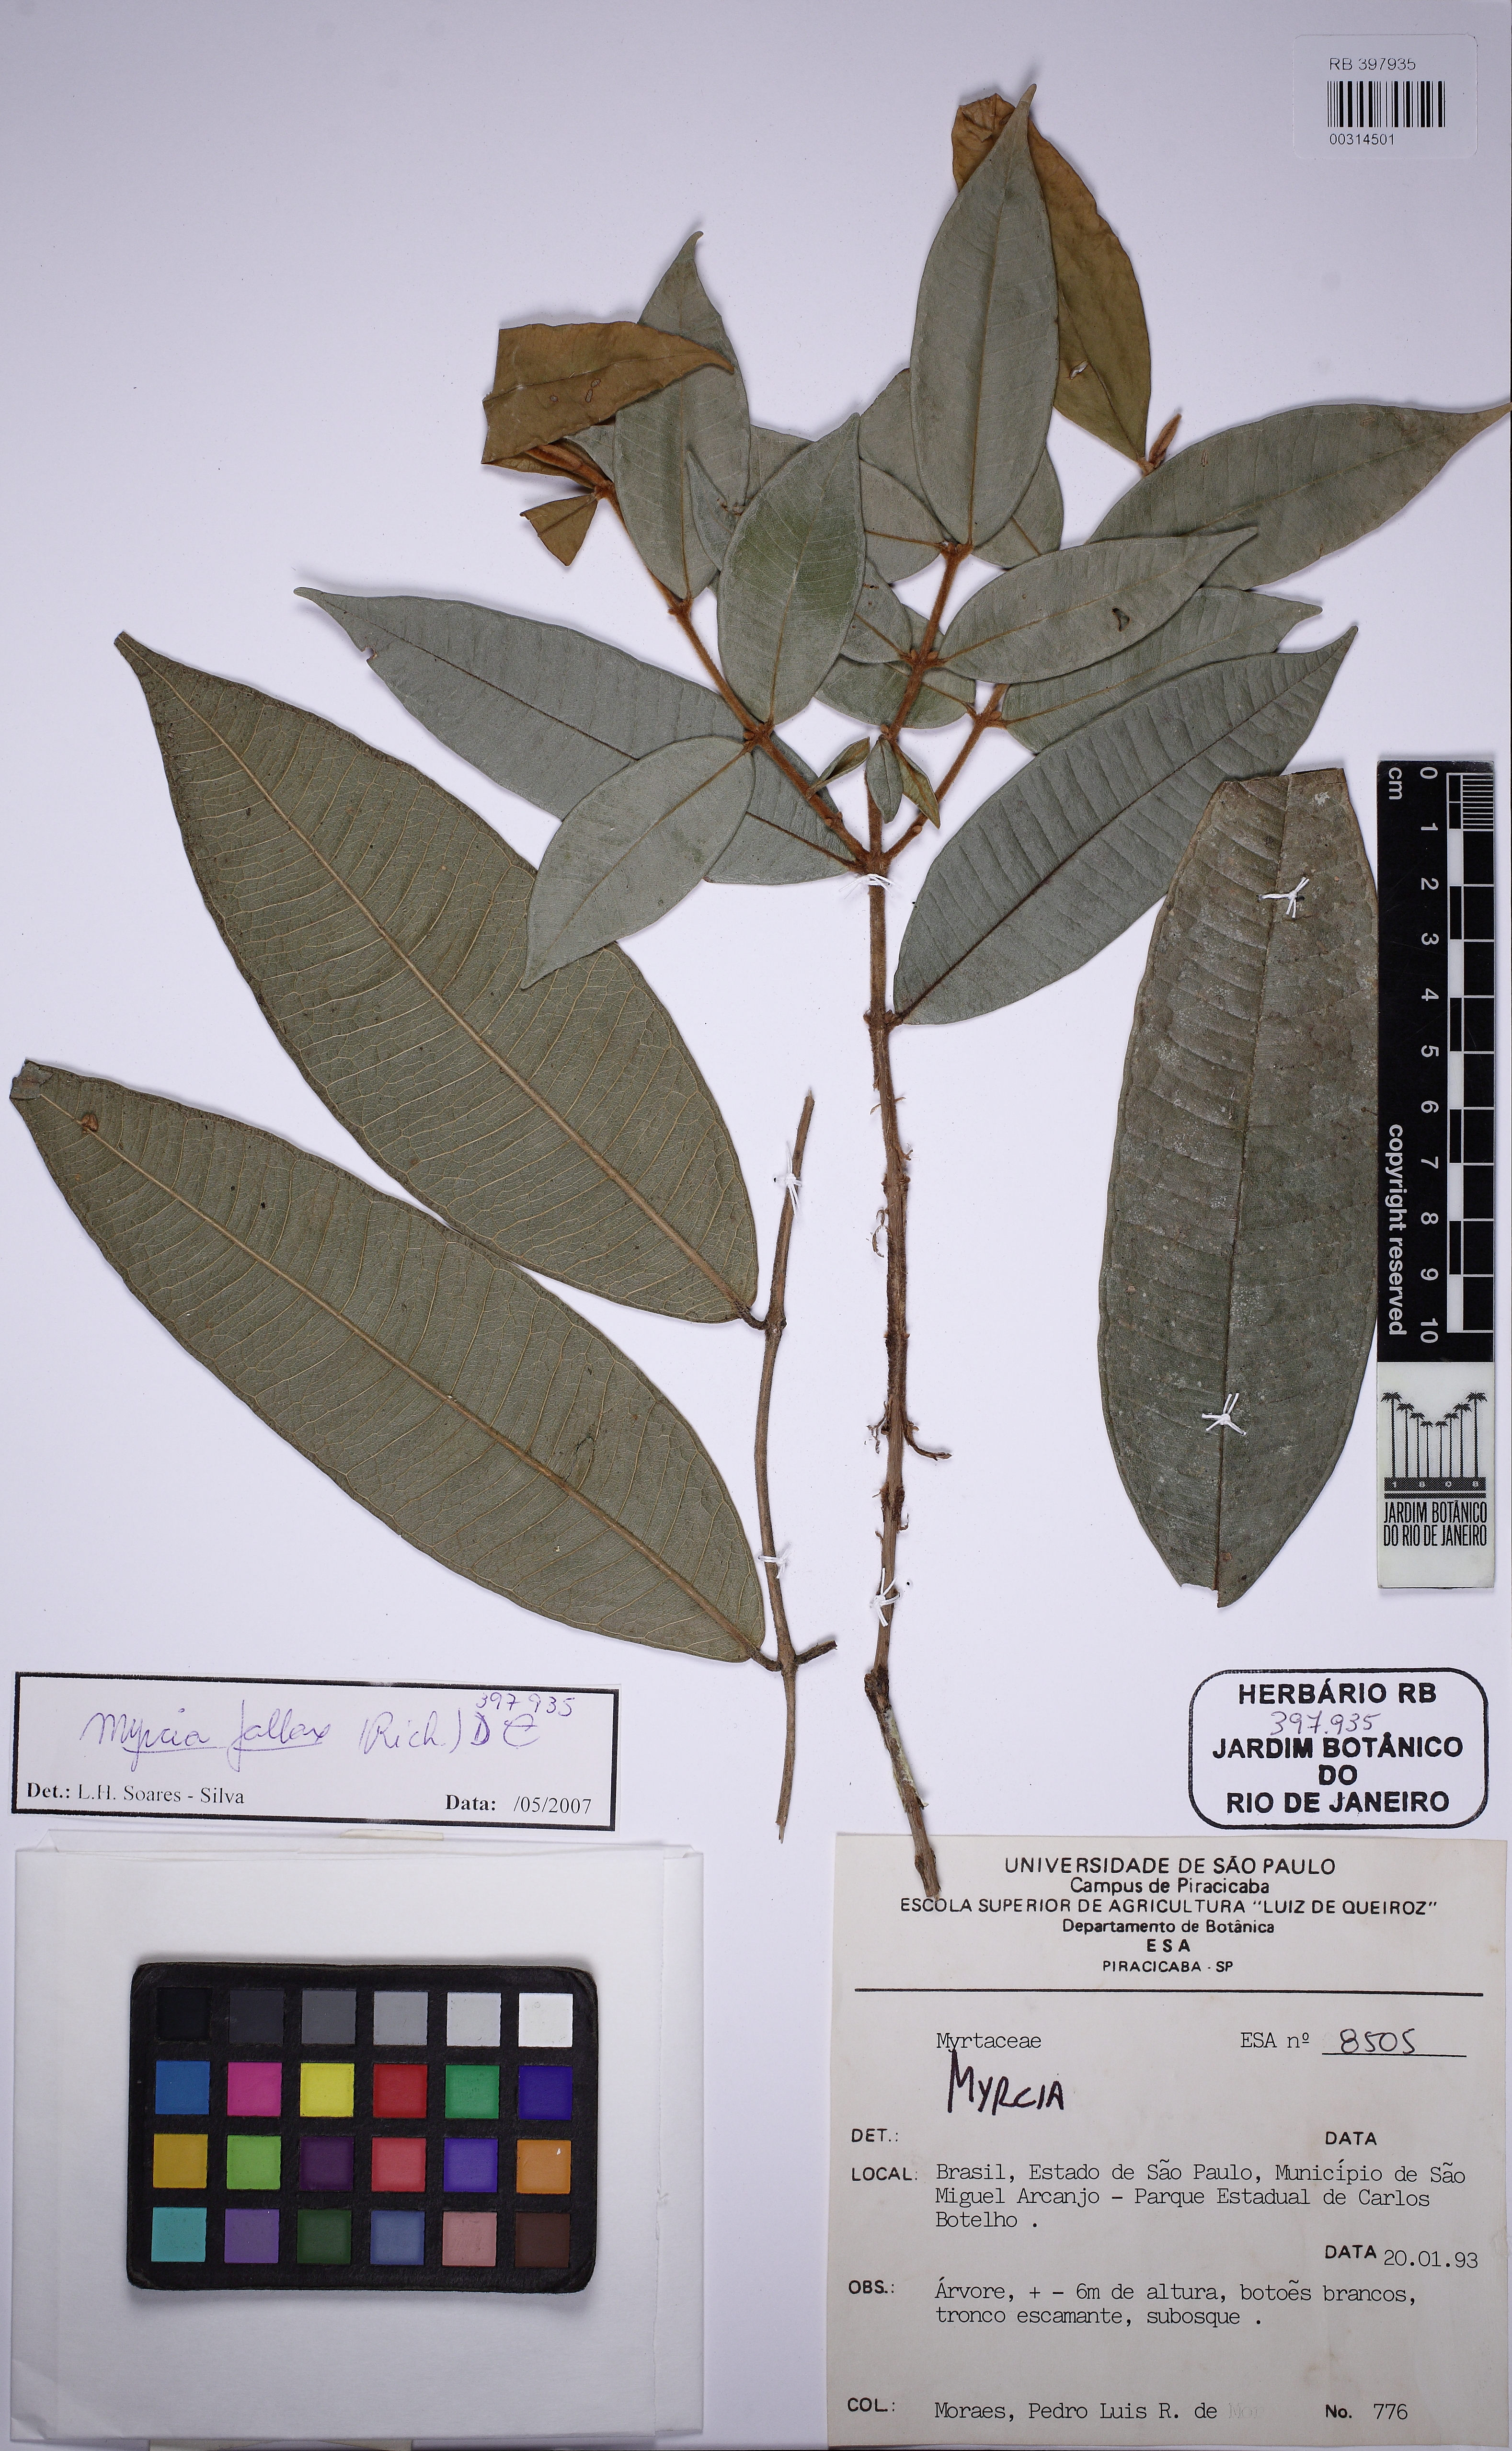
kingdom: Plantae
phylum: Tracheophyta
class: Magnoliopsida
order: Myrtales
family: Myrtaceae
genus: Myrcia
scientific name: Myrcia splendens
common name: Surinam cherry
